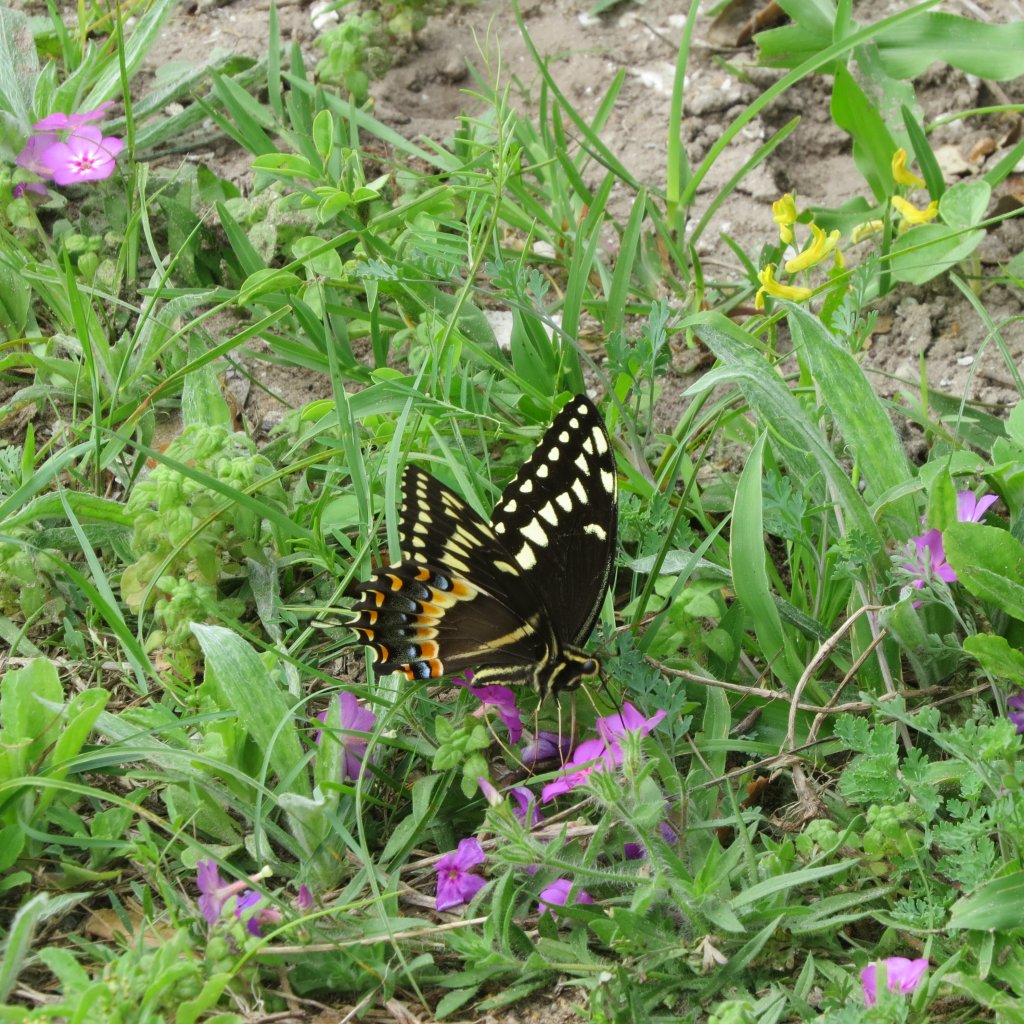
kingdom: Animalia
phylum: Arthropoda
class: Insecta
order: Lepidoptera
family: Papilionidae
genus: Pterourus
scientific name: Pterourus palamedes
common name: Palamedes Swallowtail
